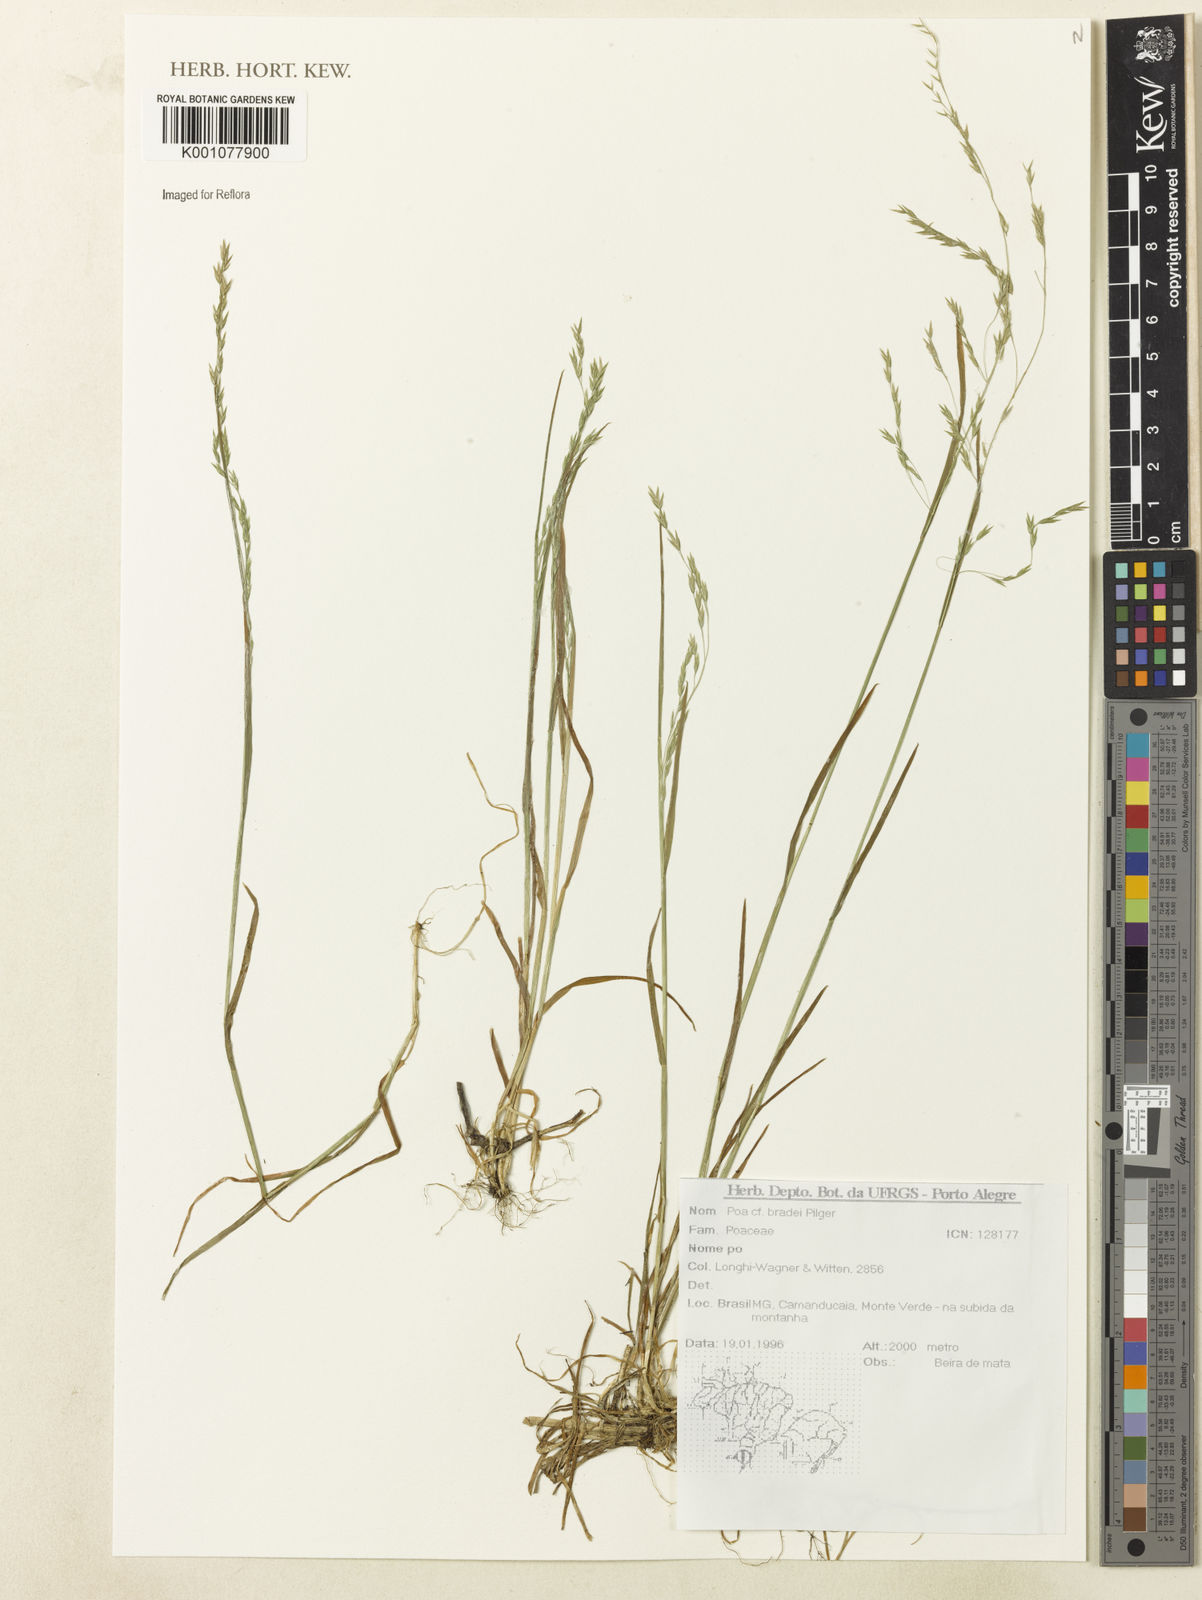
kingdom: Plantae
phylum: Tracheophyta
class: Liliopsida
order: Poales
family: Poaceae
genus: Poa
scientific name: Poa bradei
